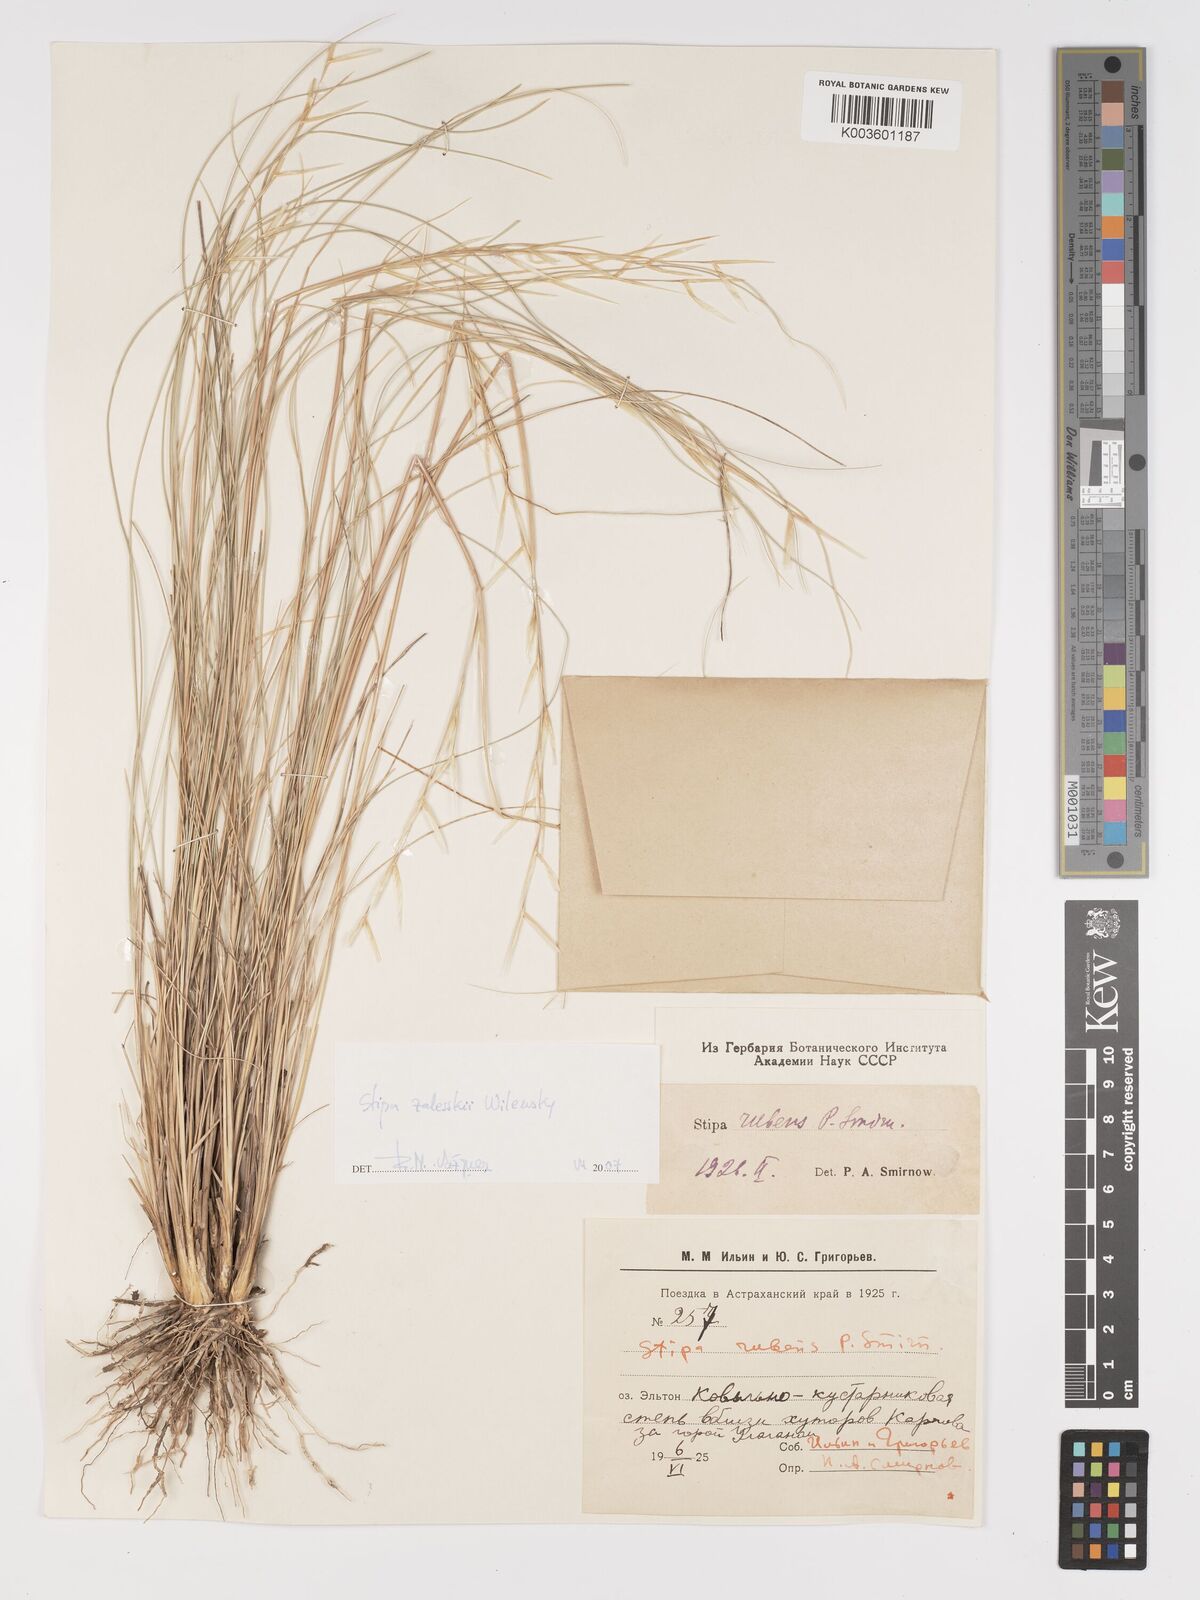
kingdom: Plantae
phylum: Tracheophyta
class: Liliopsida
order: Poales
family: Poaceae
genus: Stipa
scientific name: Stipa
